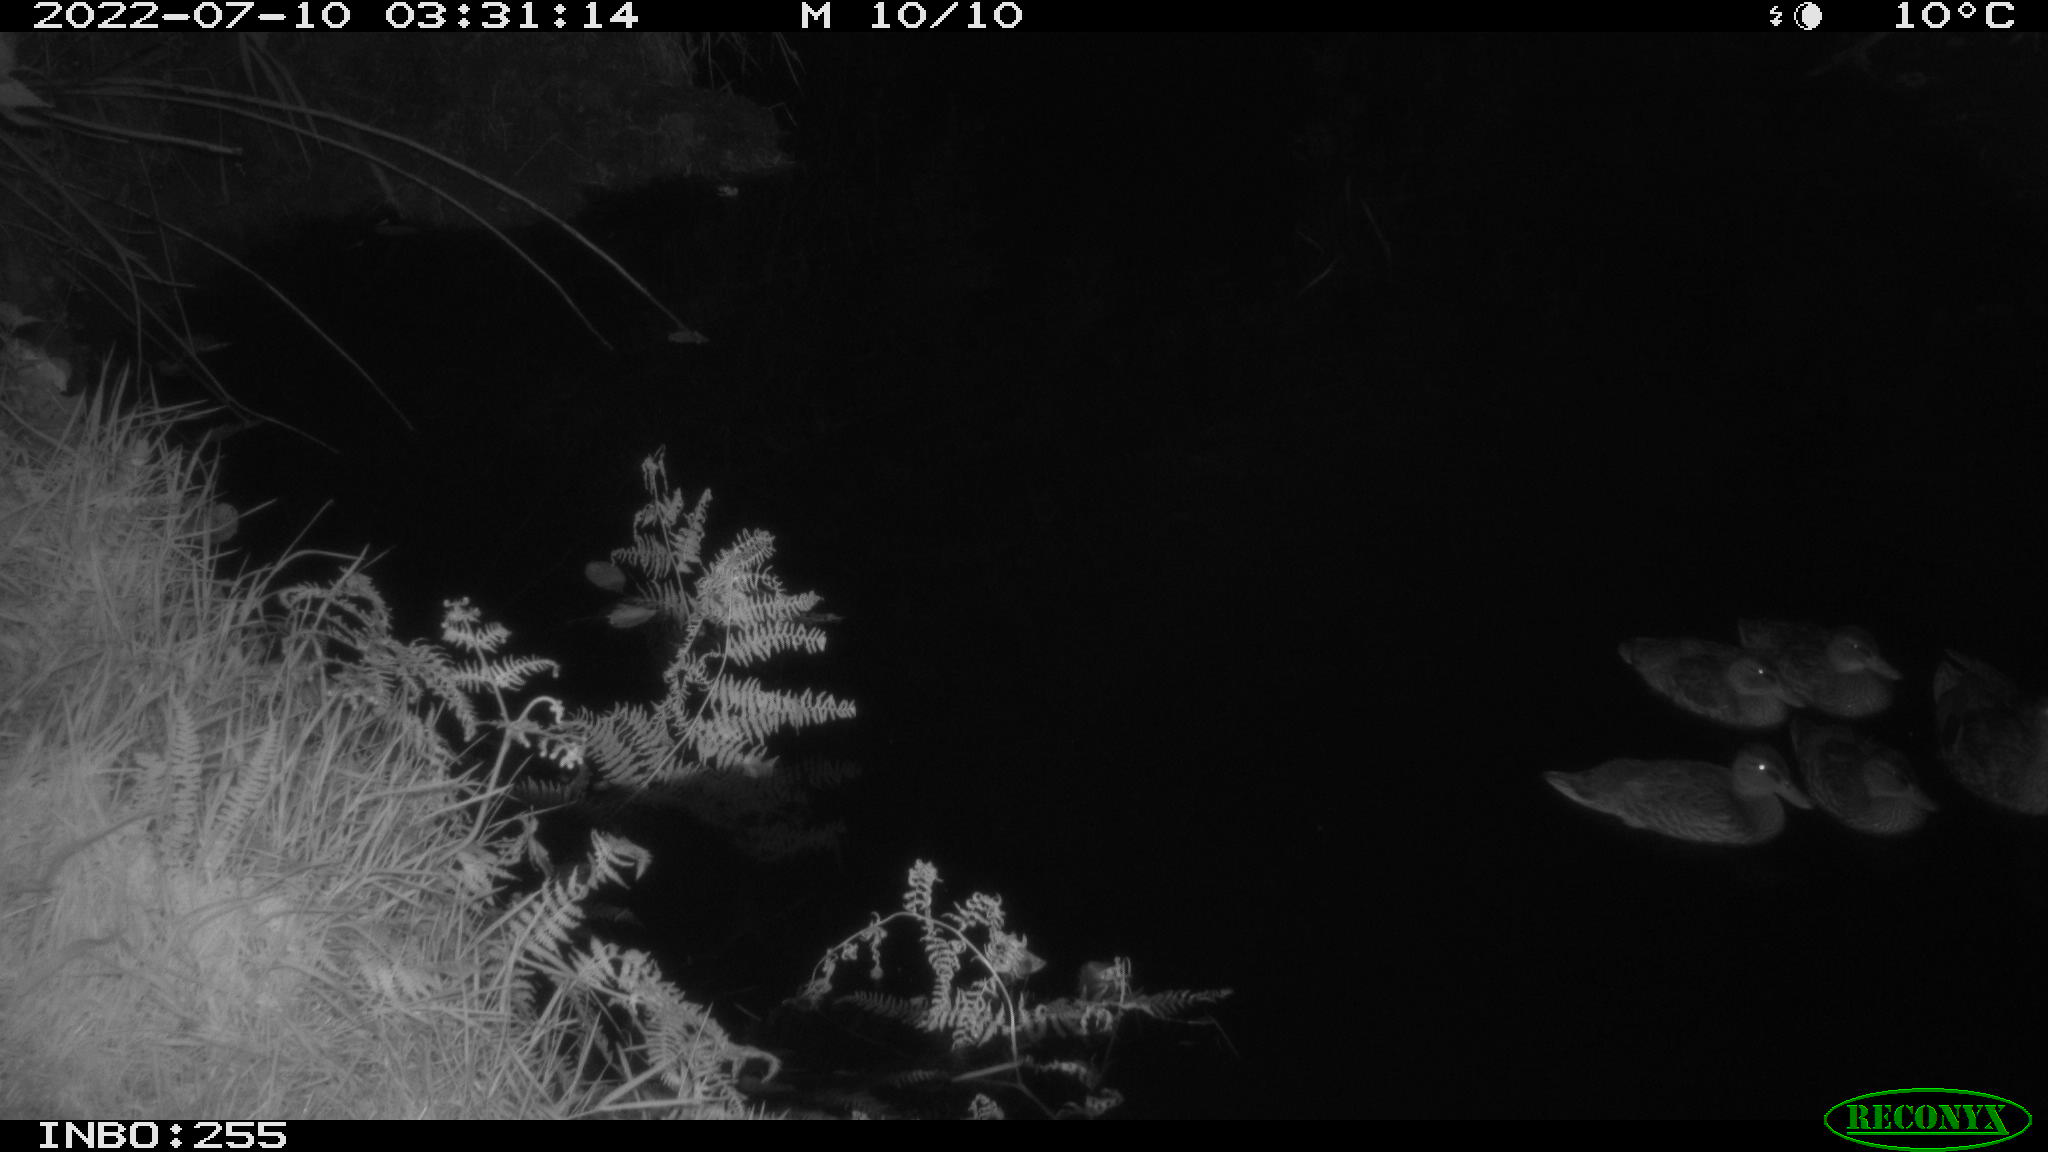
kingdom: Animalia
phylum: Chordata
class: Aves
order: Anseriformes
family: Anatidae
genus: Anas
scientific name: Anas platyrhynchos
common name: Mallard
